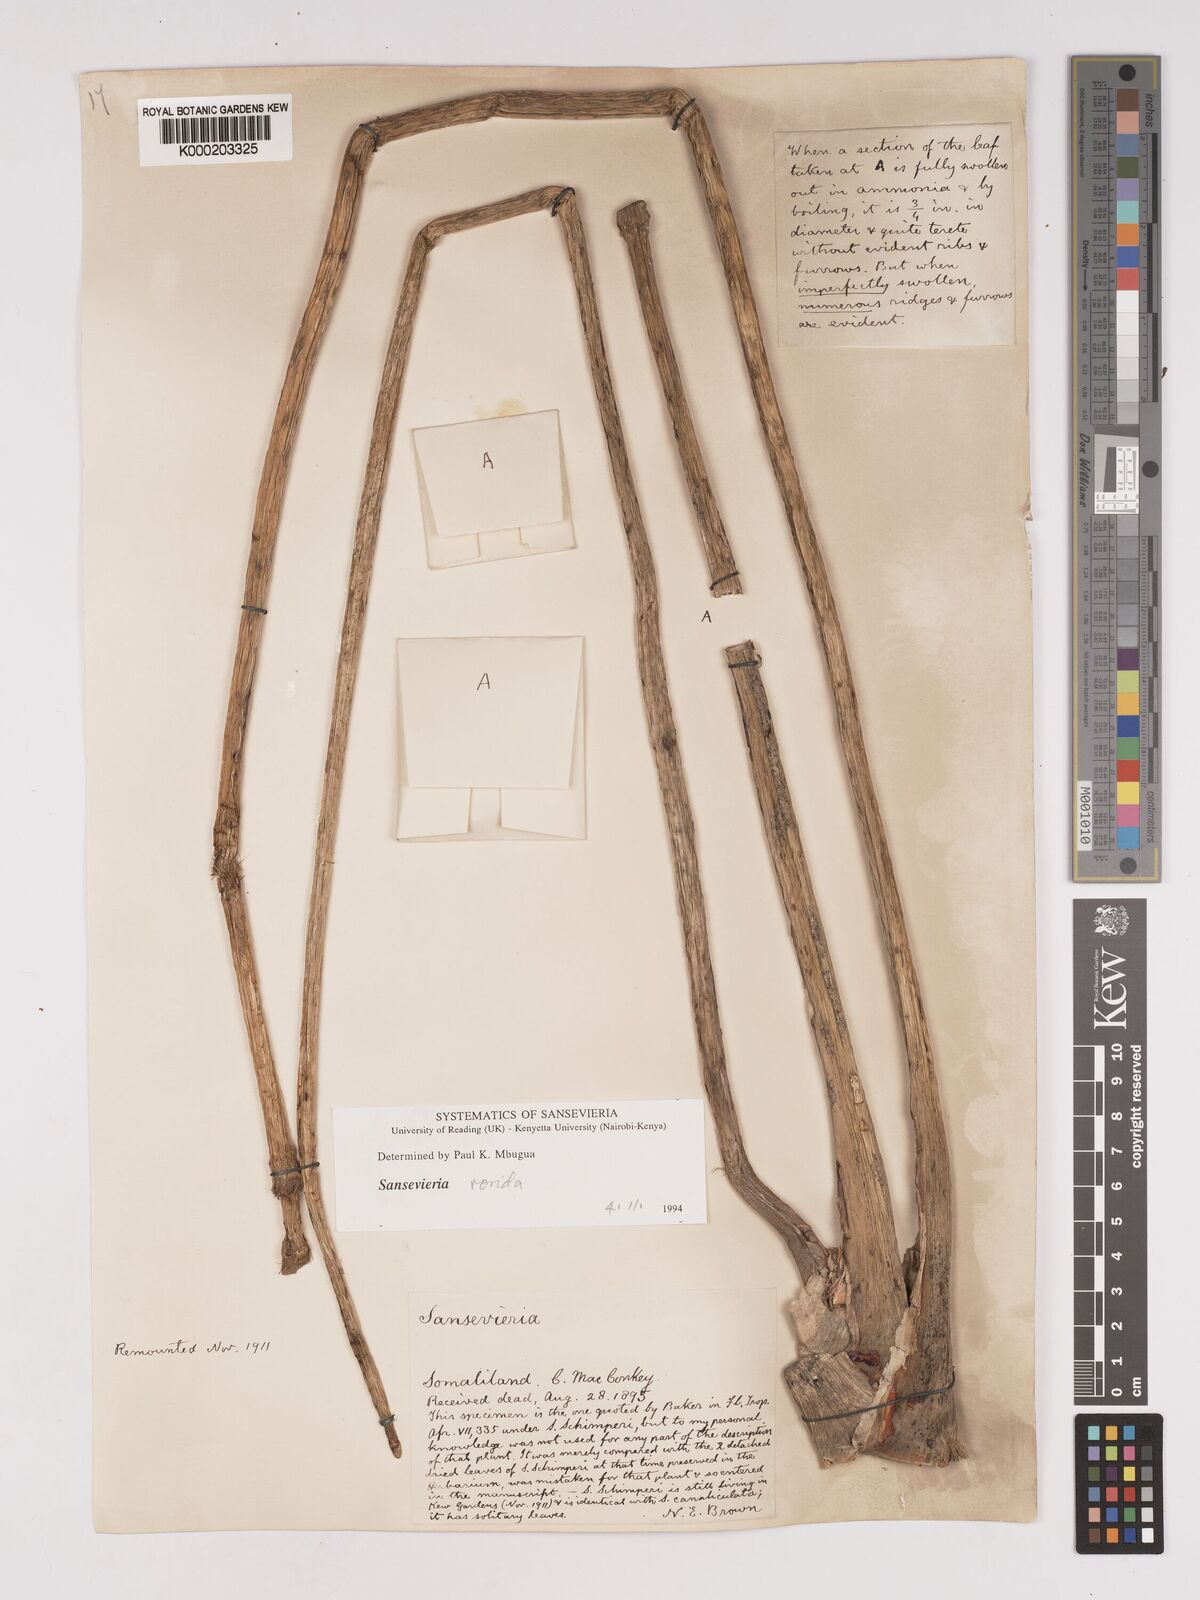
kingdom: Plantae
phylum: Tracheophyta
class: Liliopsida
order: Asparagales
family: Asparagaceae
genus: Dracaena
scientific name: Dracaena
